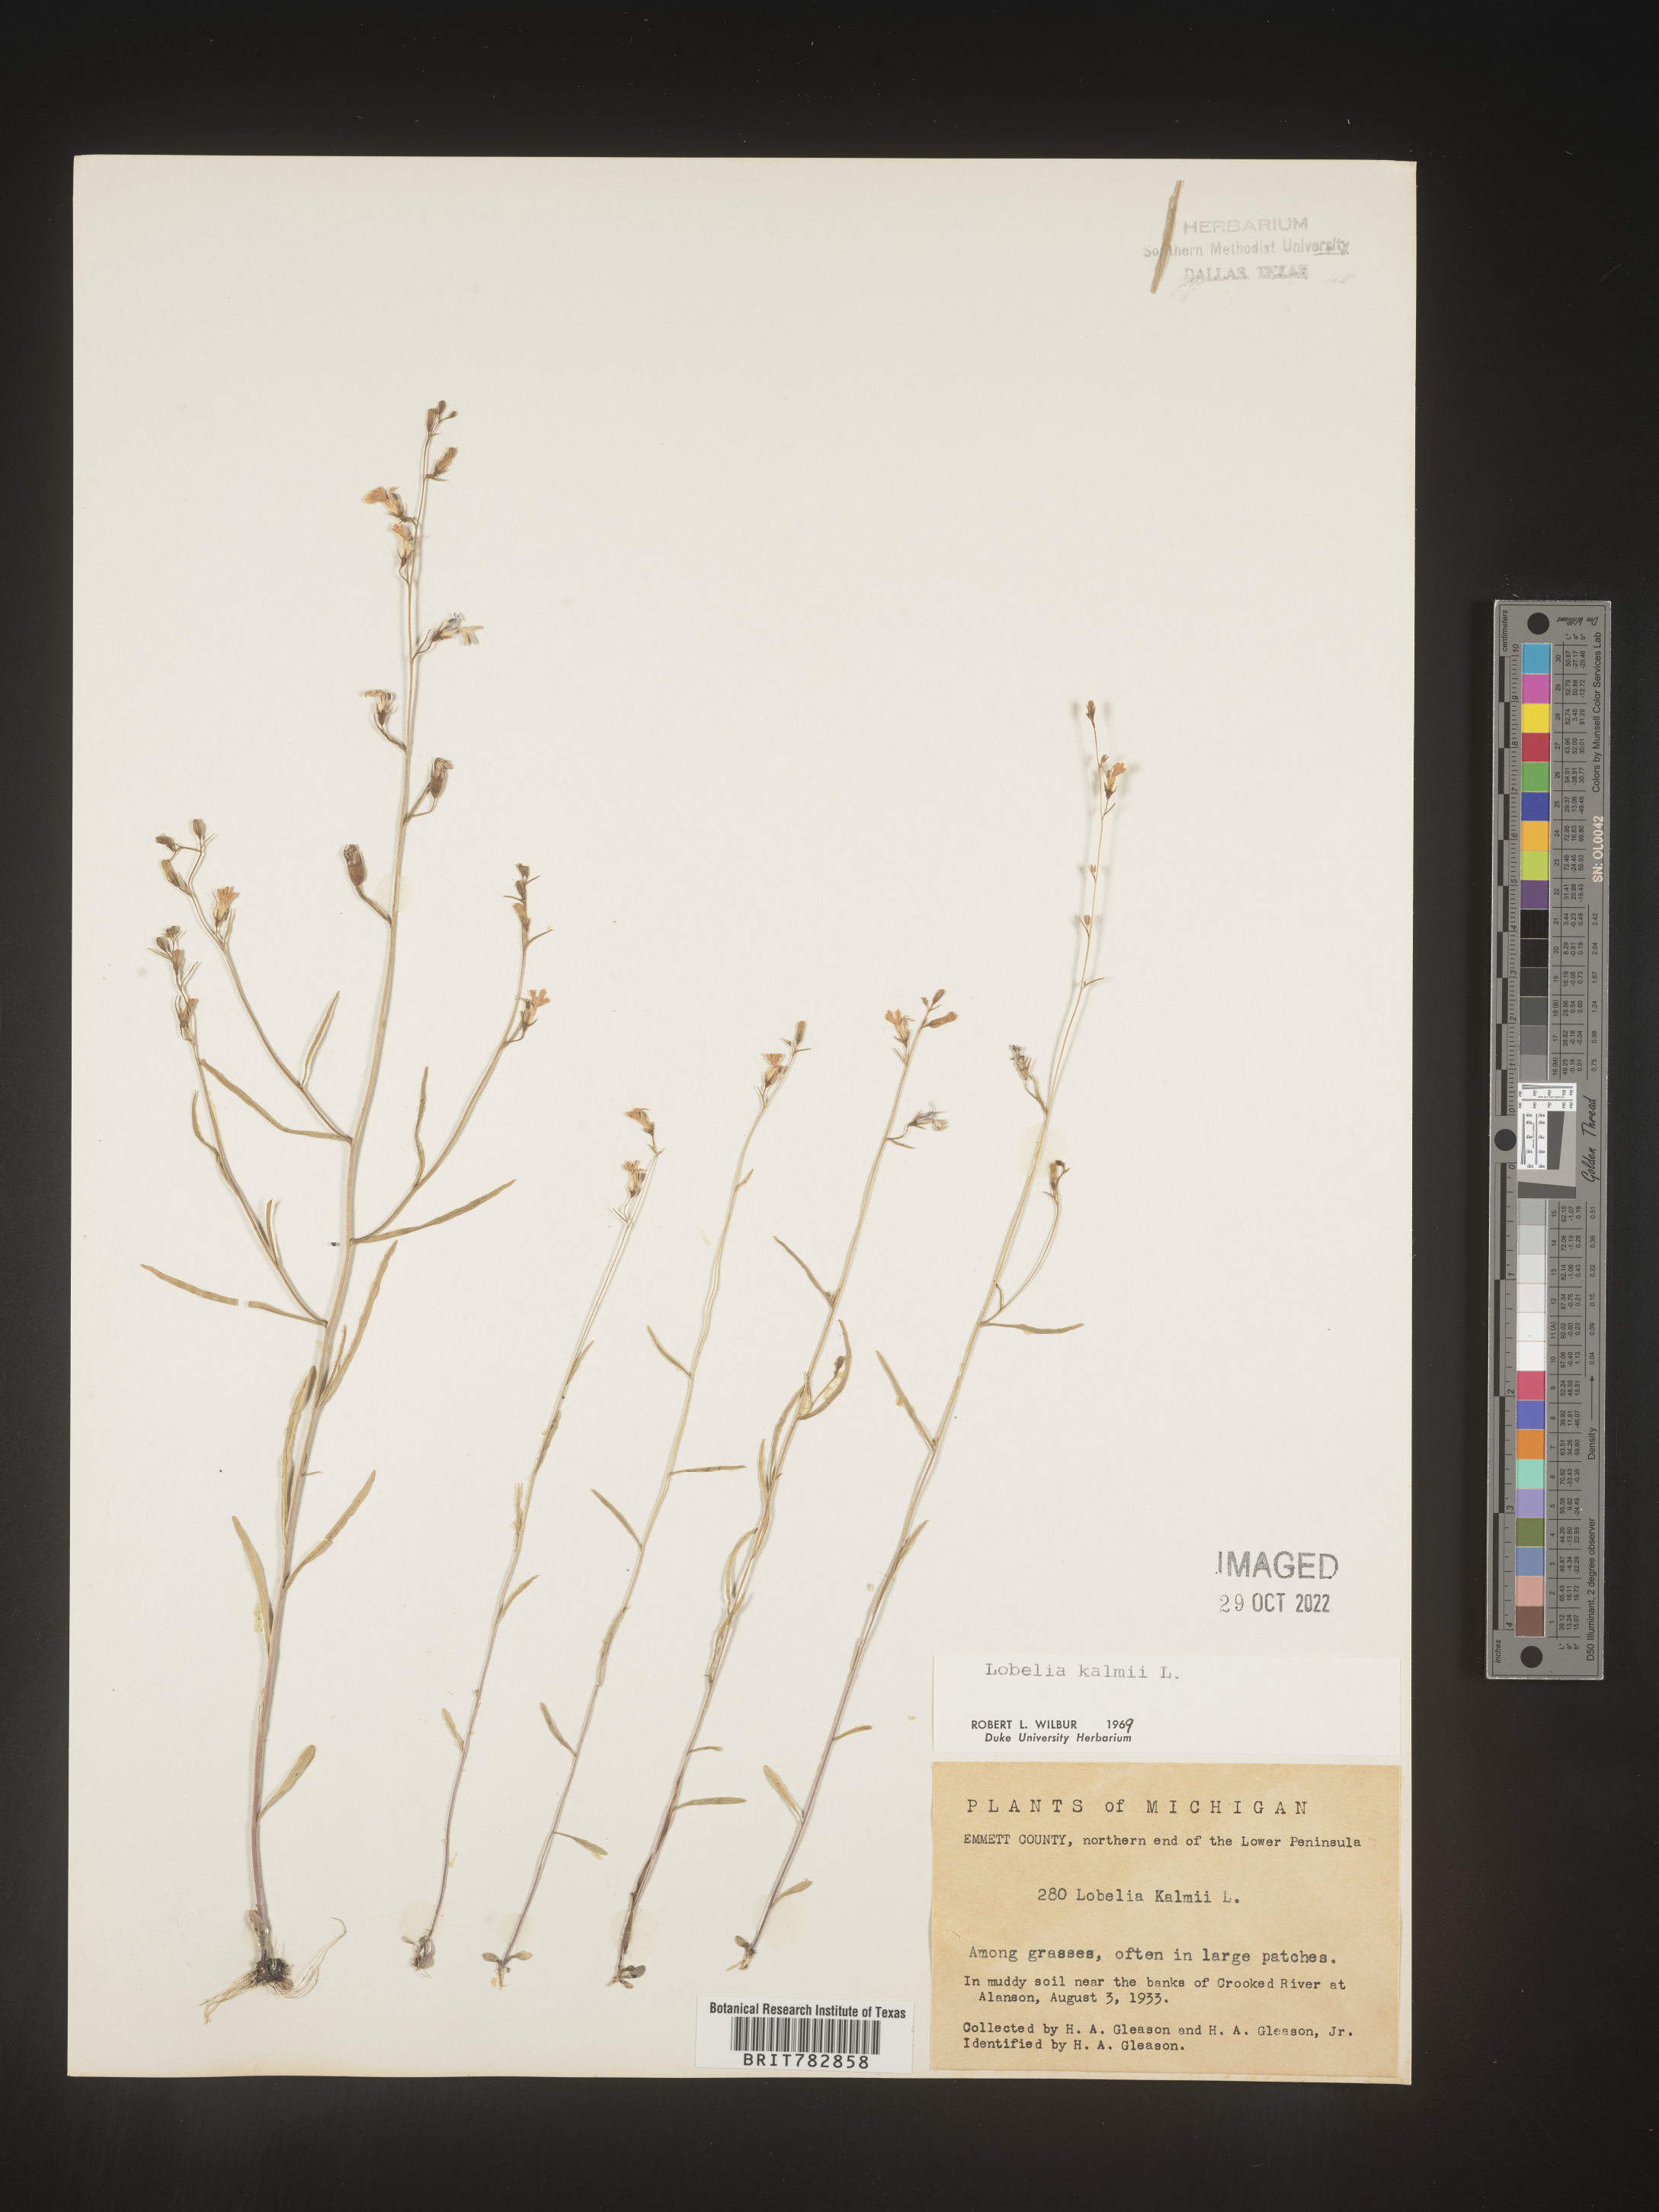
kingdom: Plantae
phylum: Tracheophyta
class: Magnoliopsida
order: Asterales
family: Campanulaceae
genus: Lobelia
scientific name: Lobelia
